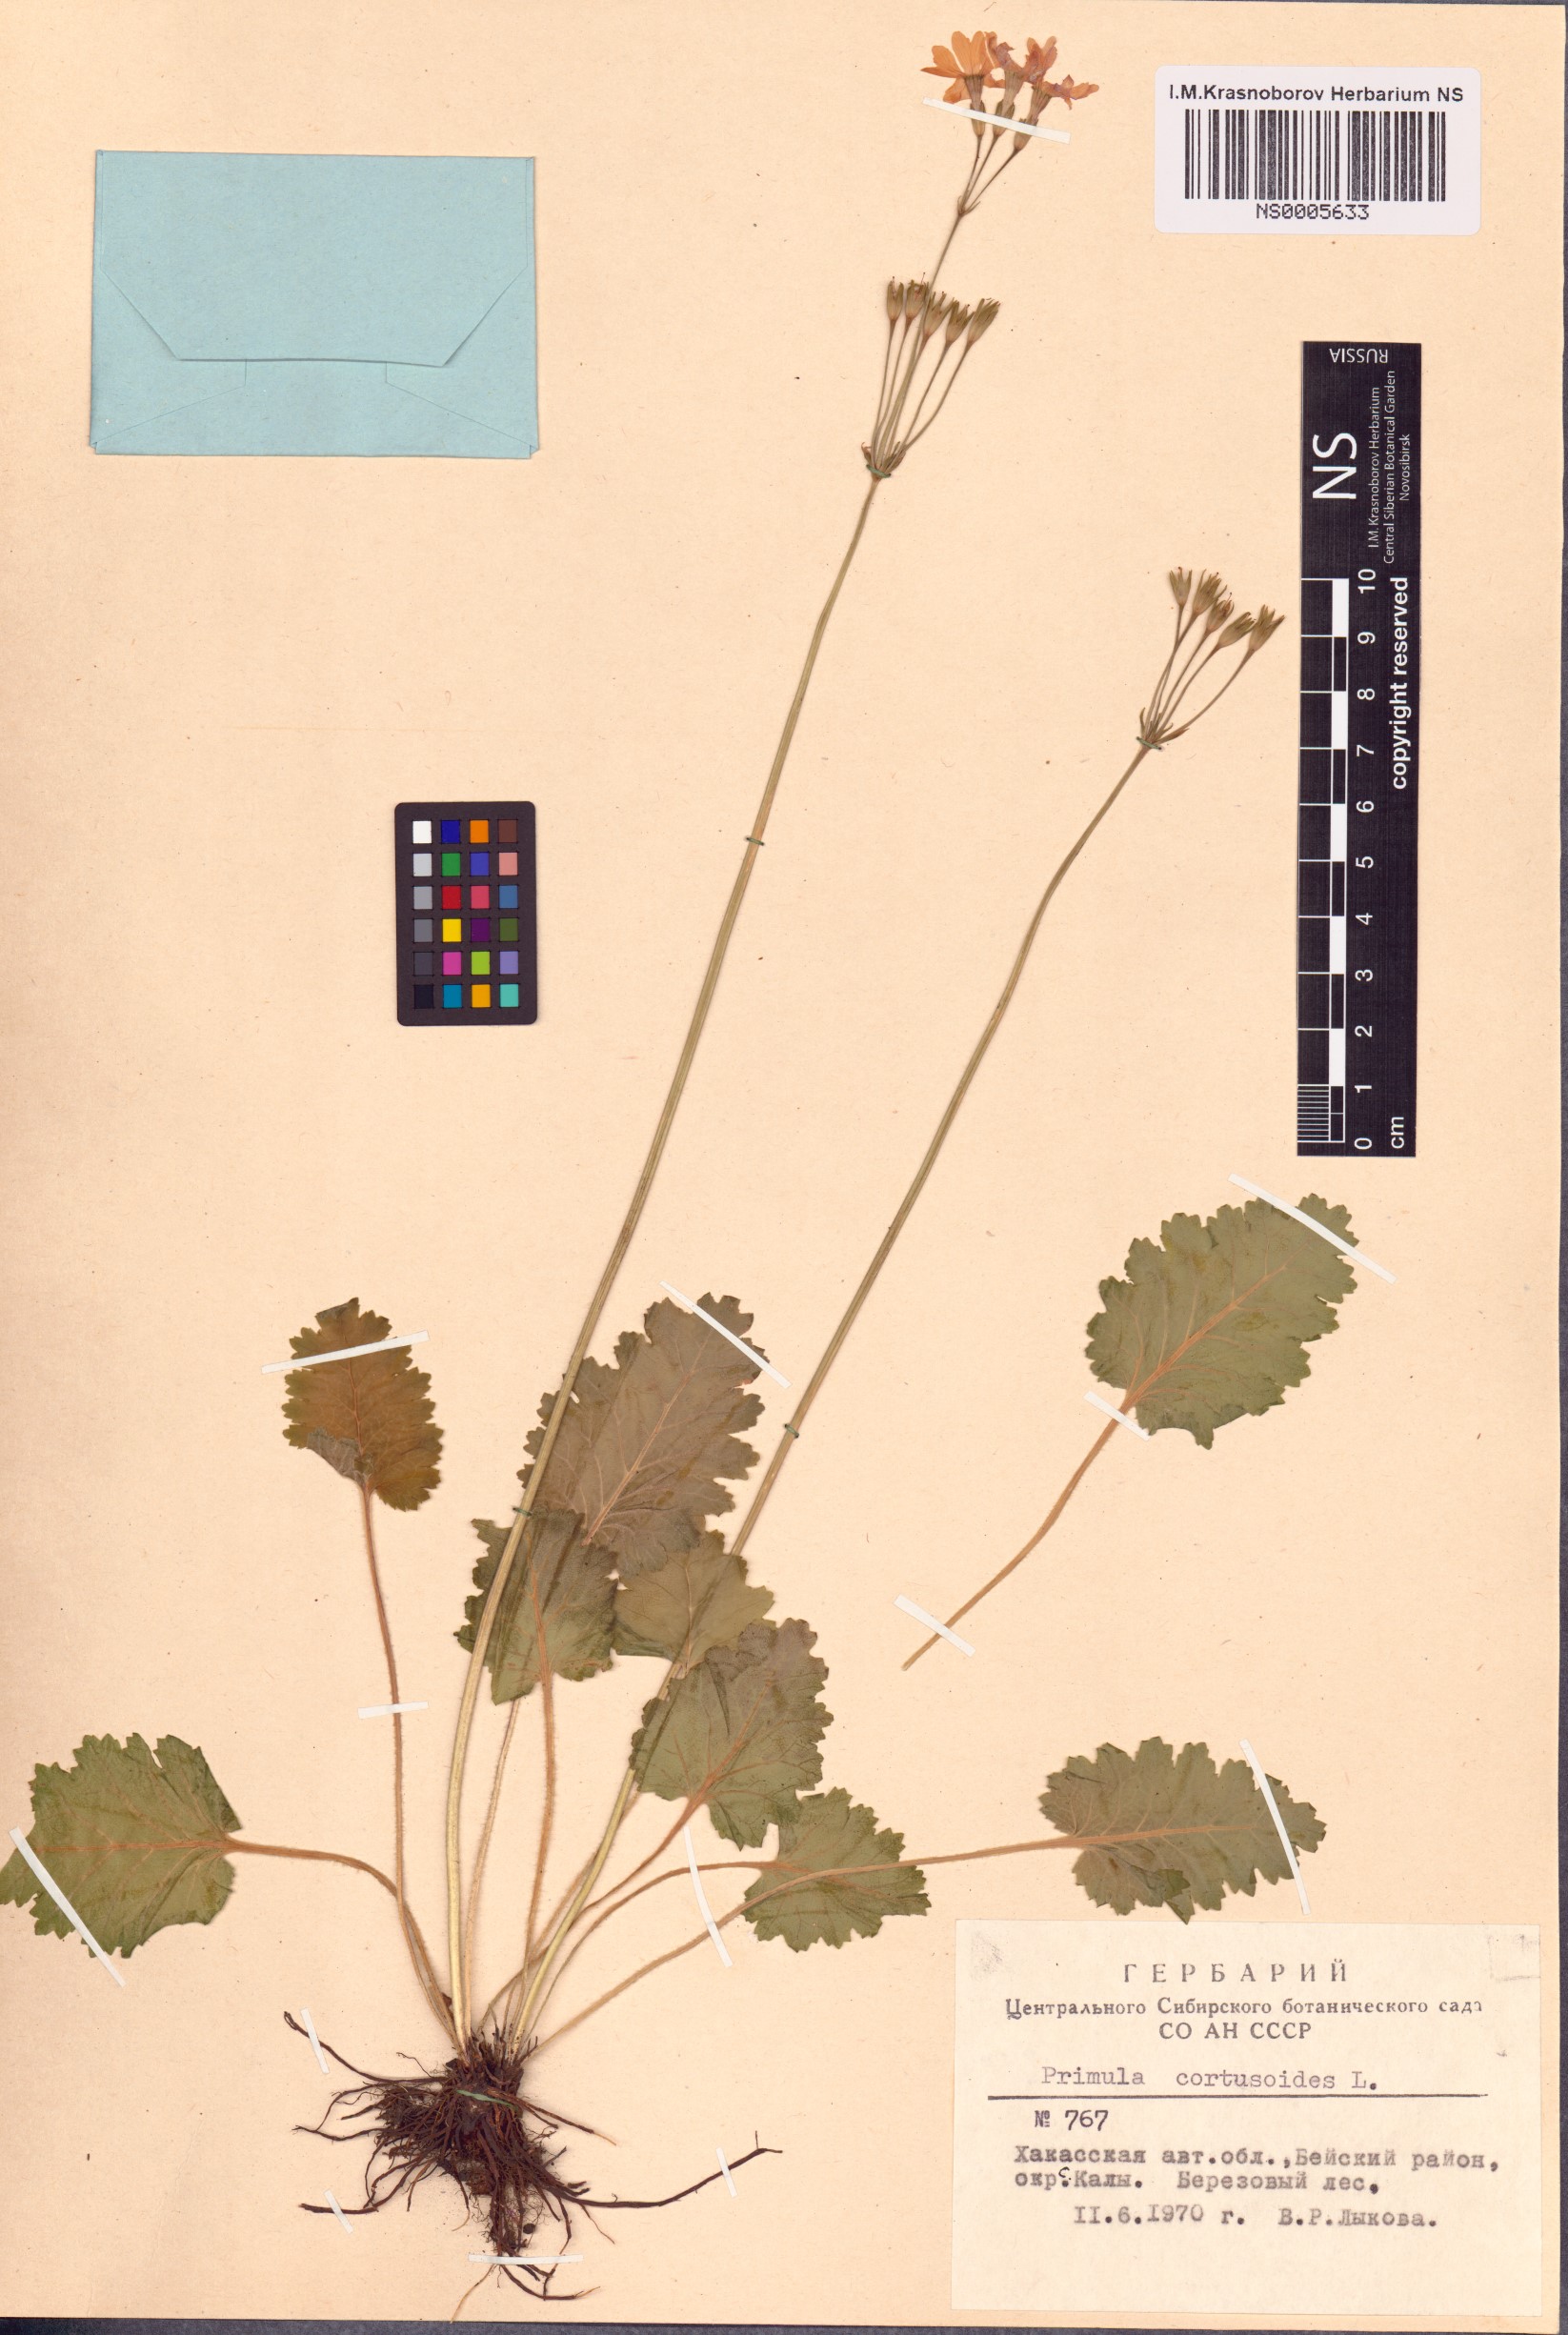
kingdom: Plantae
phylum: Tracheophyta
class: Magnoliopsida
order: Ericales
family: Primulaceae
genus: Primula
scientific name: Primula cortusoides
